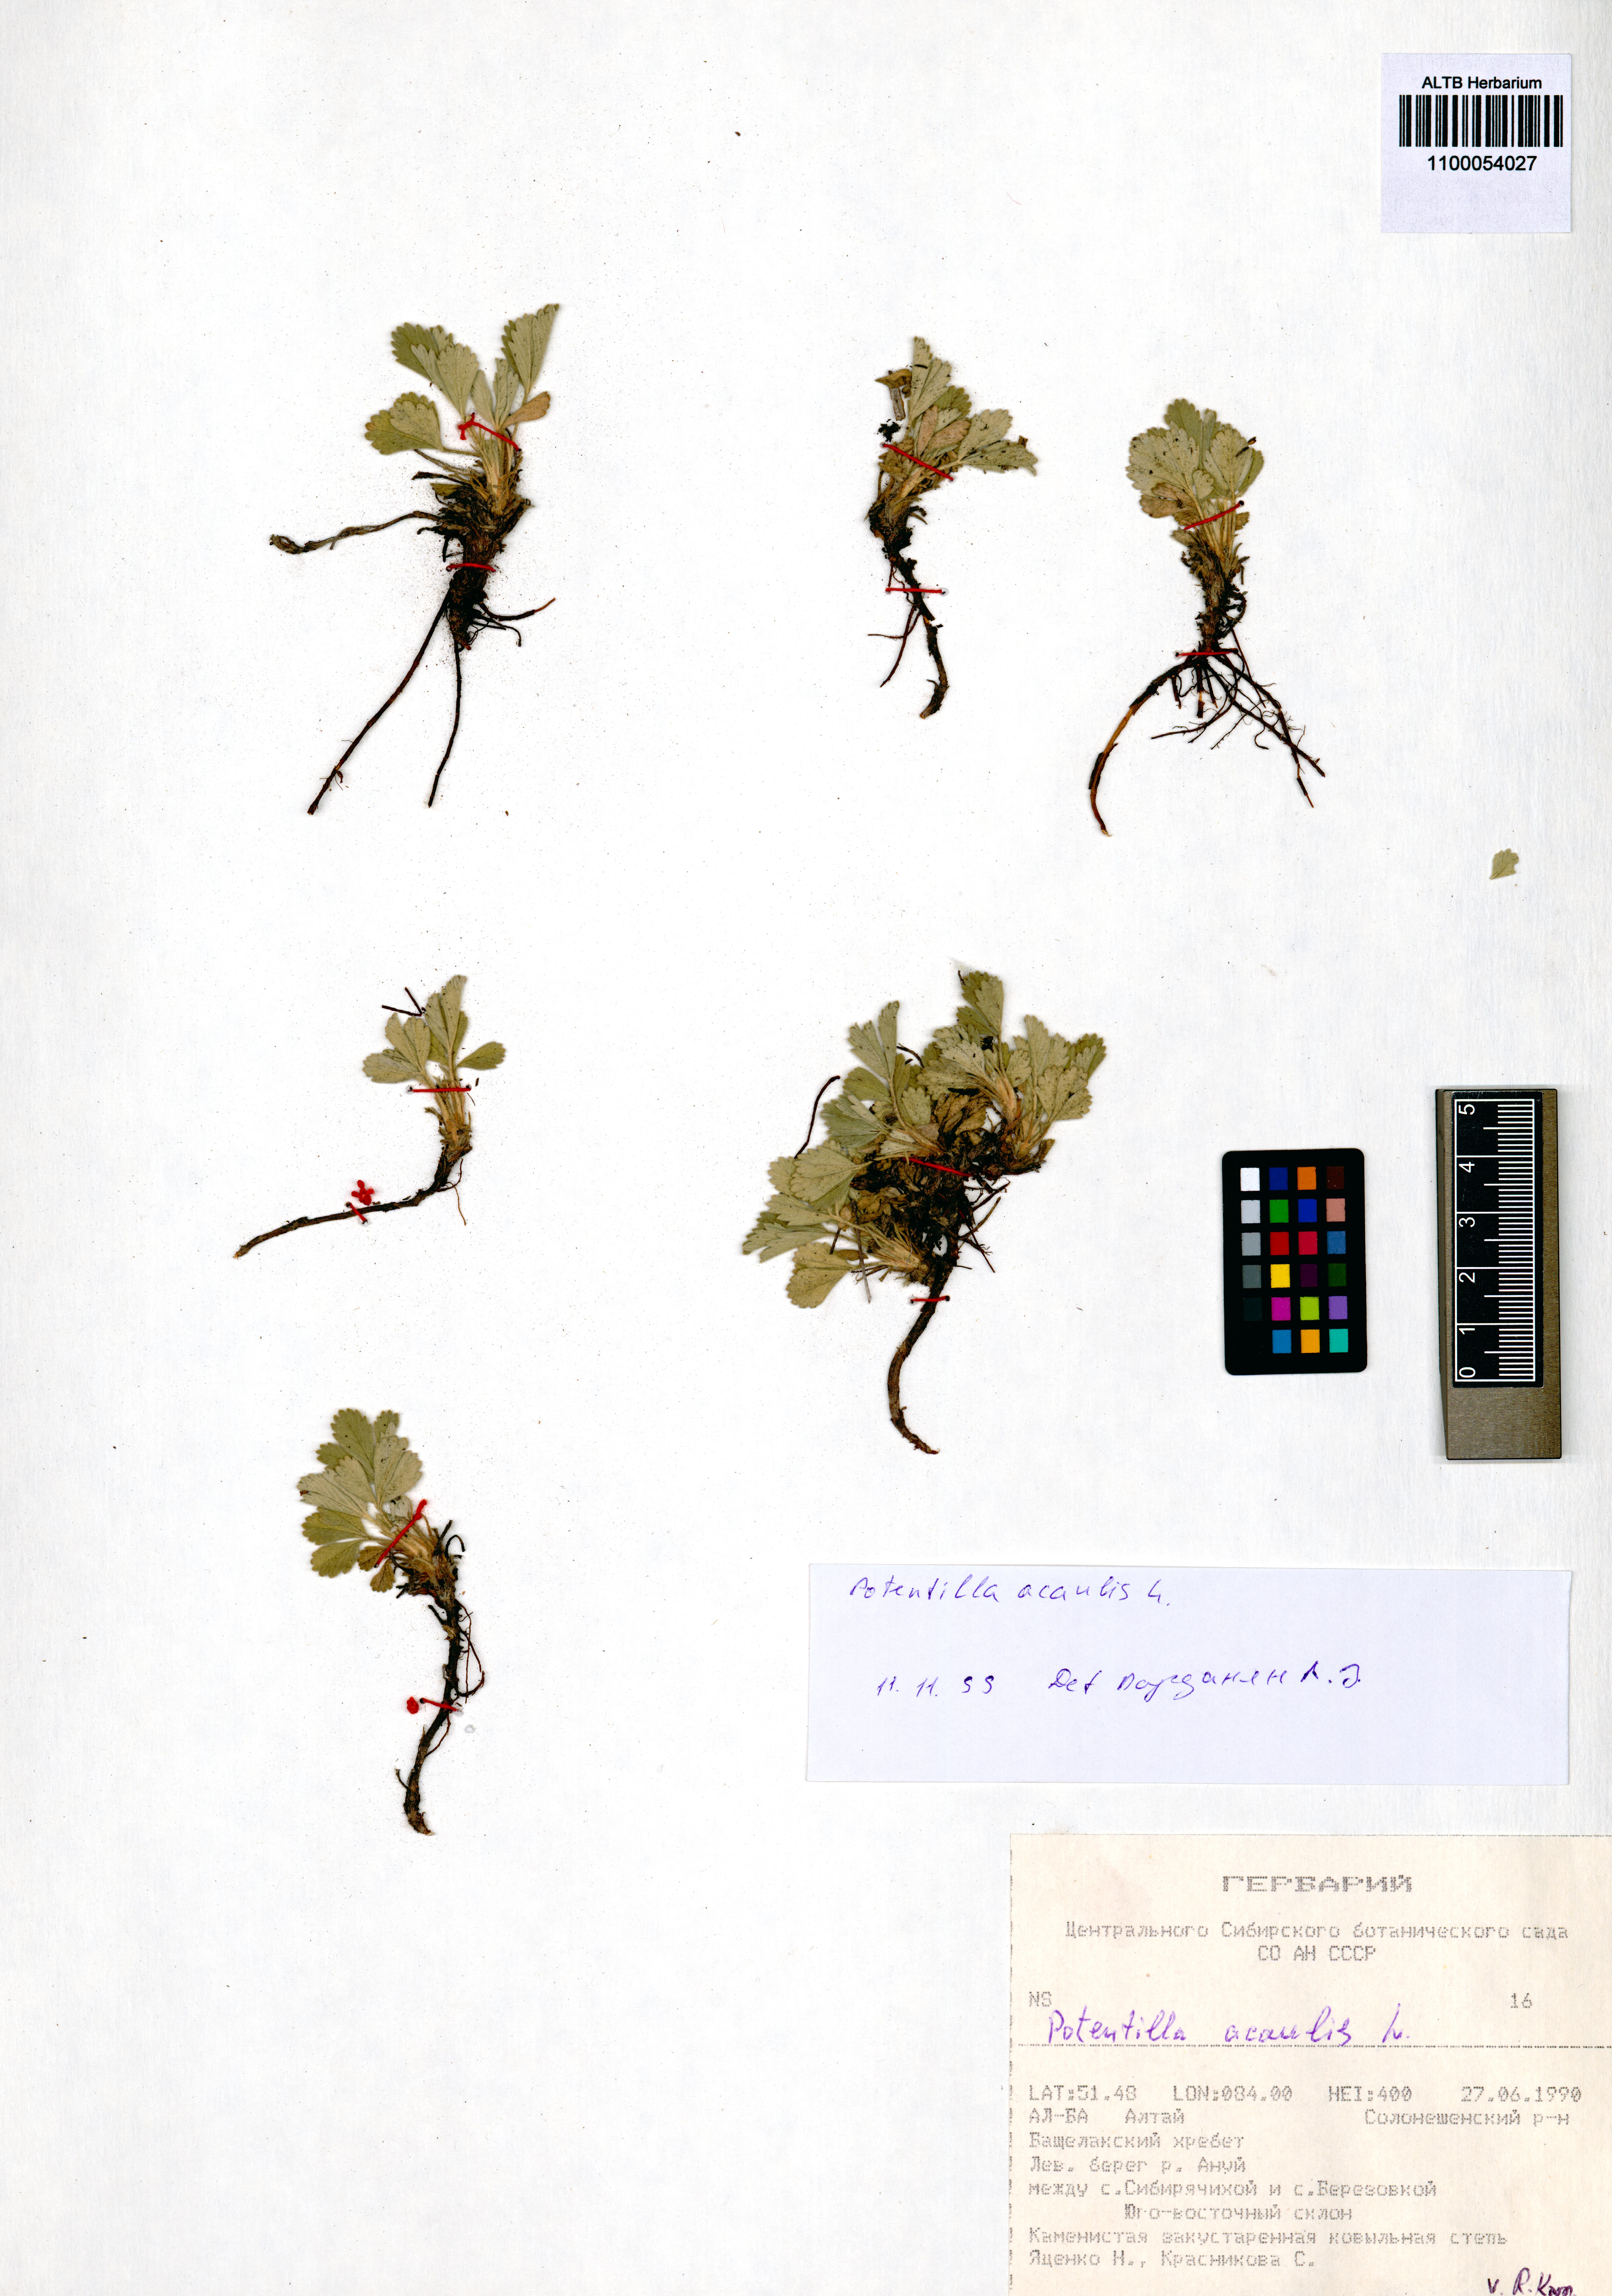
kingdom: Plantae
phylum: Tracheophyta
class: Magnoliopsida
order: Rosales
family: Rosaceae
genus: Potentilla
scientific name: Potentilla acaulis
